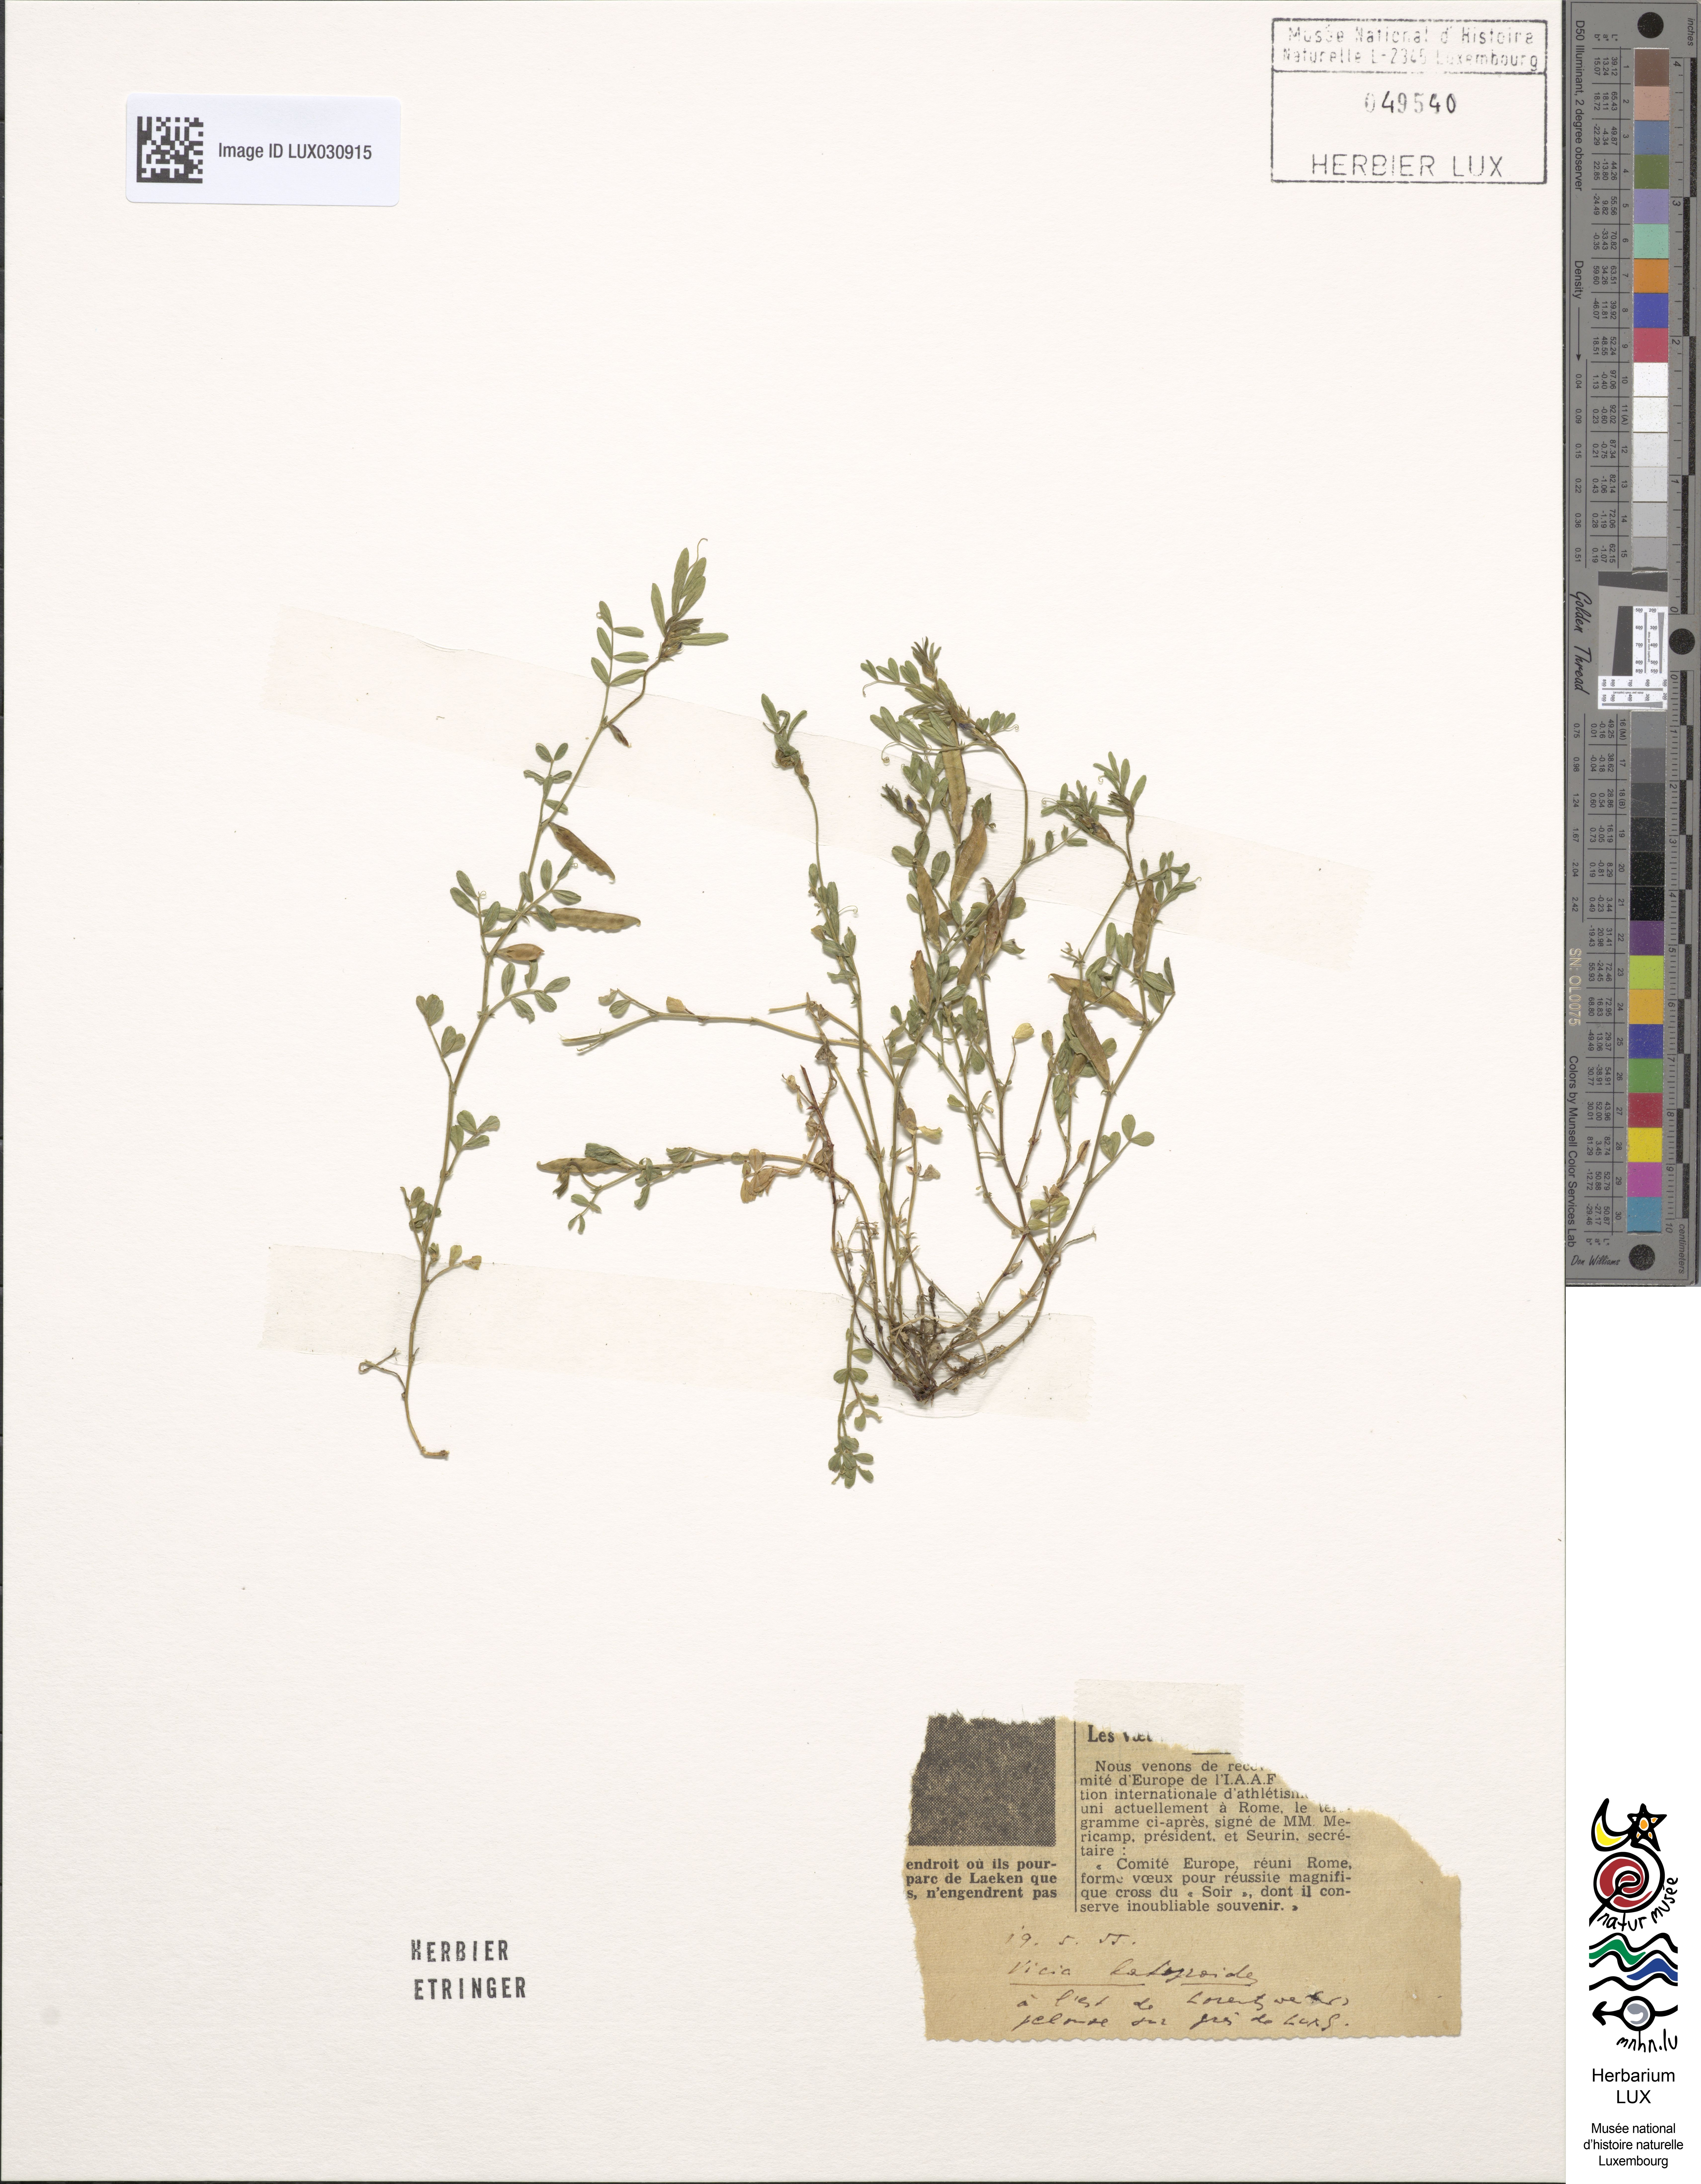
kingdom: Plantae
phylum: Tracheophyta
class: Magnoliopsida
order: Fabales
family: Fabaceae
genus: Vicia
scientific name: Vicia lathyroides
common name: Spring vetch
